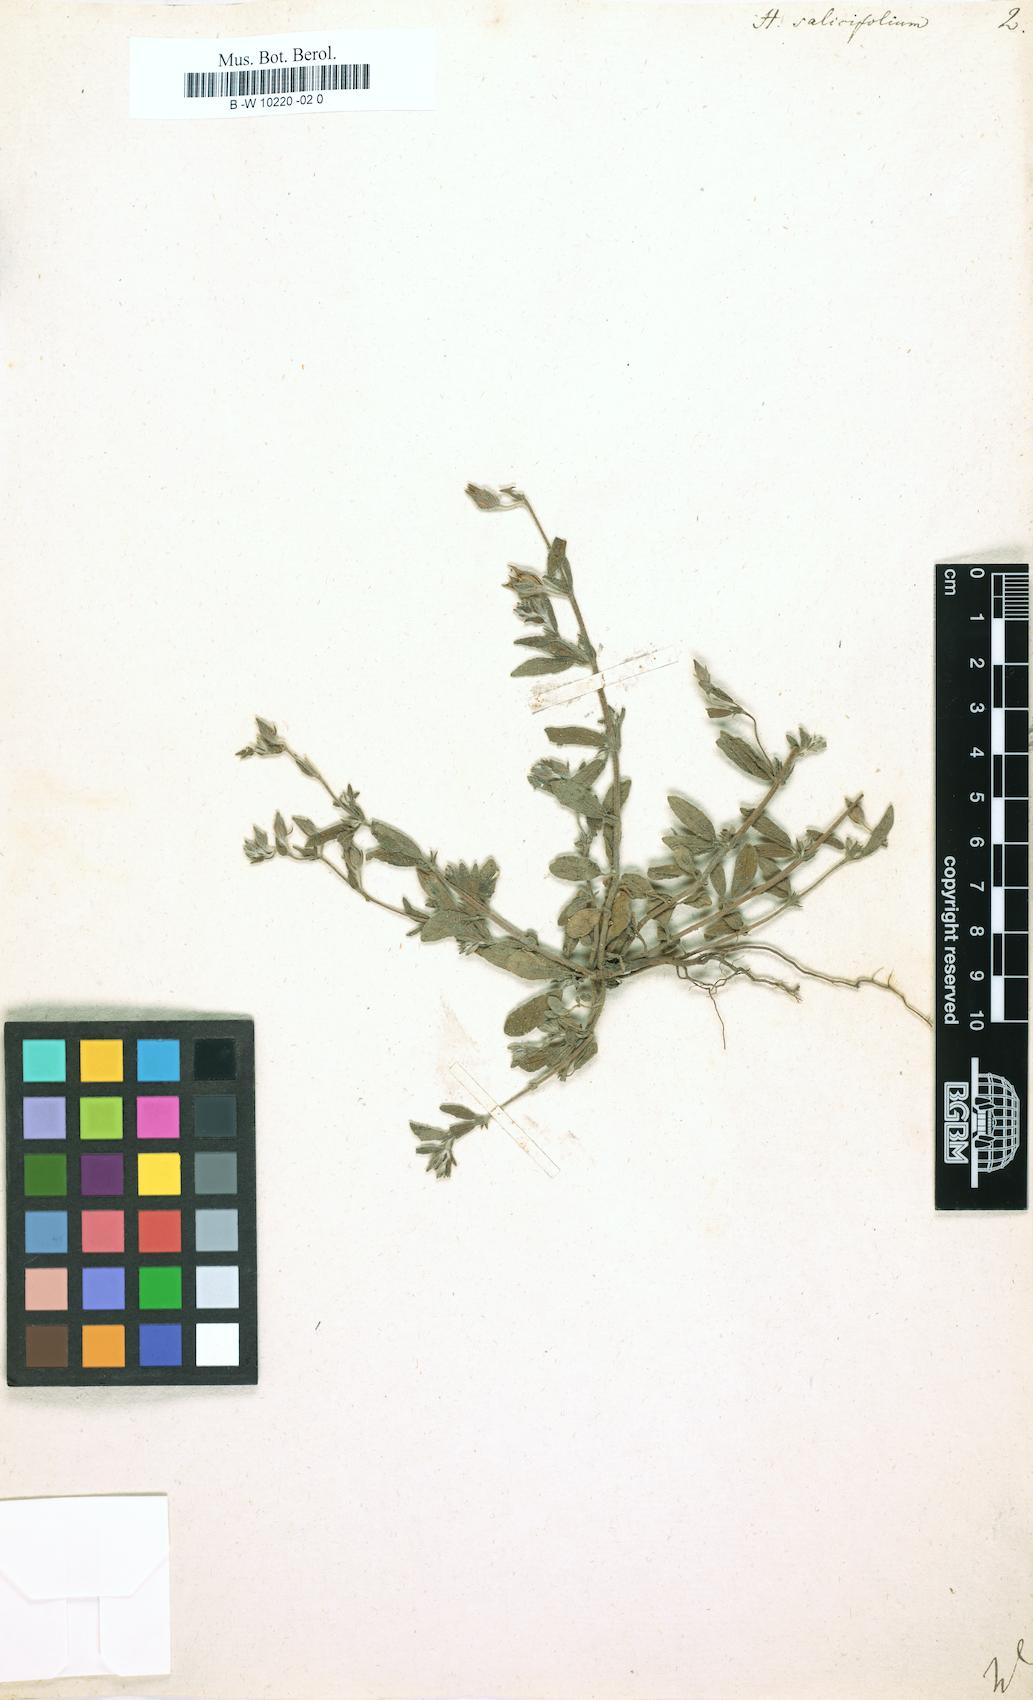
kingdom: Plantae
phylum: Tracheophyta
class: Magnoliopsida
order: Malvales
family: Cistaceae
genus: Helianthemum
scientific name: Helianthemum salicifolium
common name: Willowleaf frostweed
